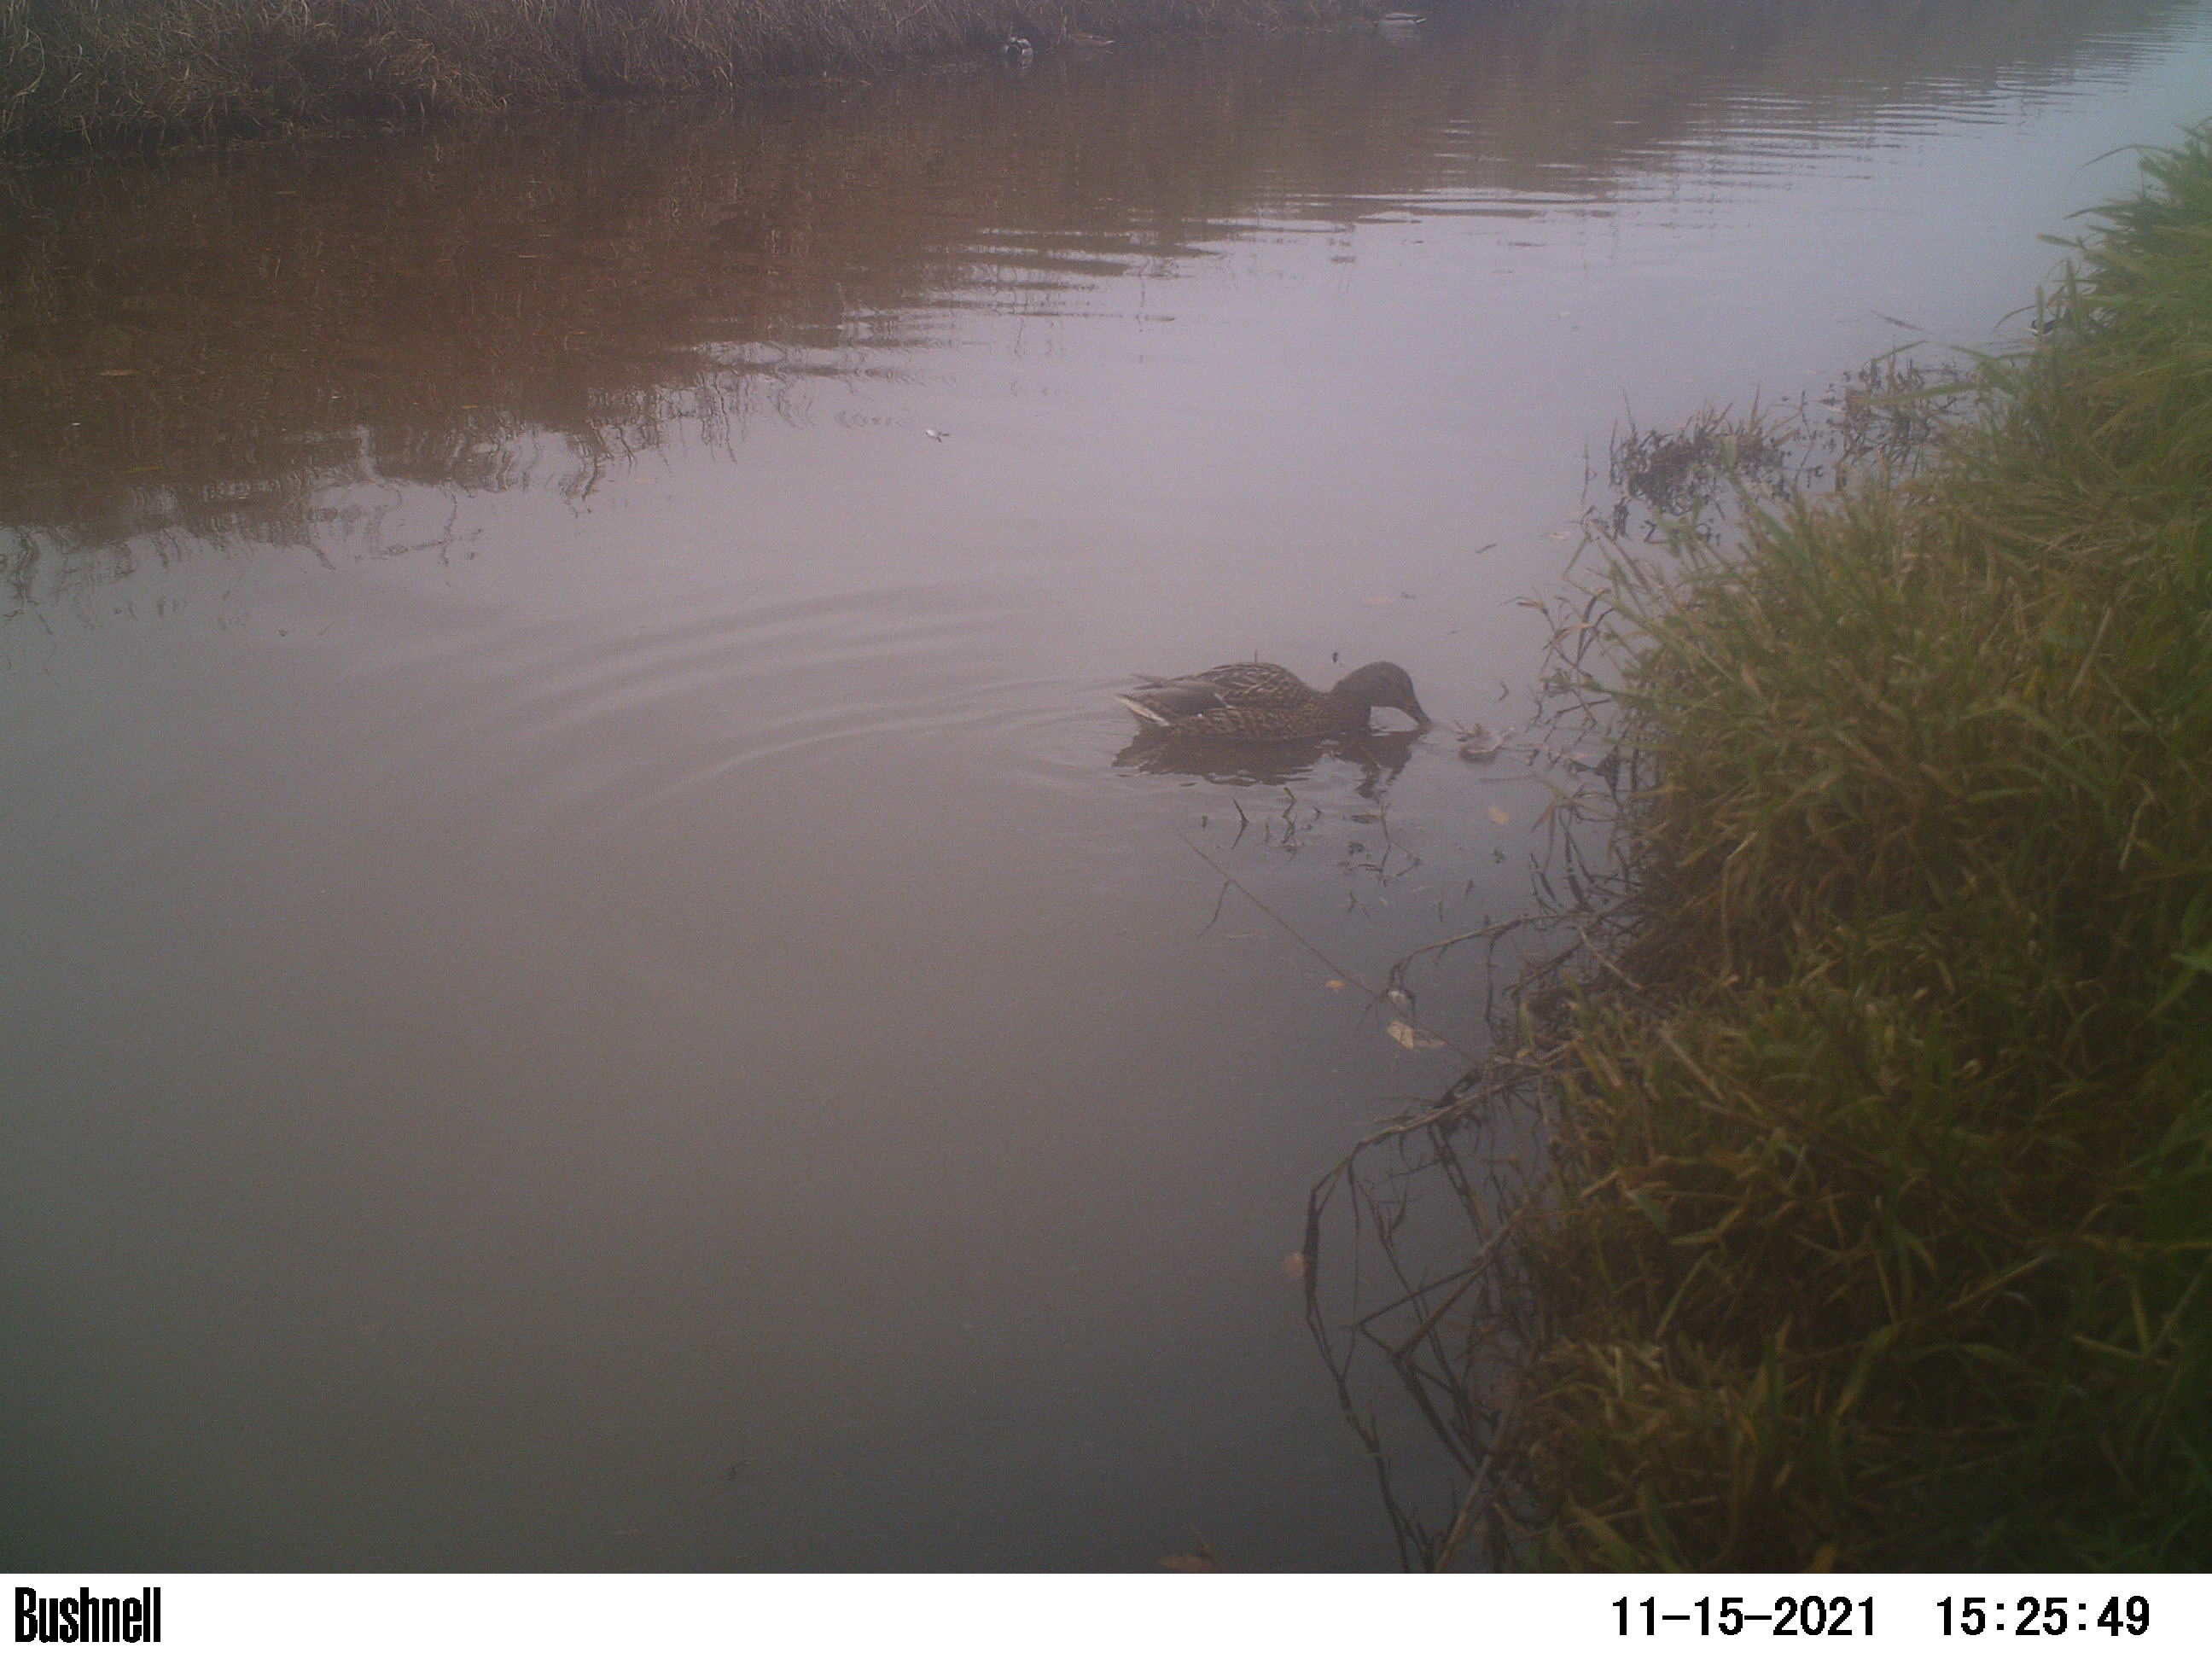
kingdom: Animalia
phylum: Chordata
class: Aves
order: Anseriformes
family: Anatidae
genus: Anas
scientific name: Anas
